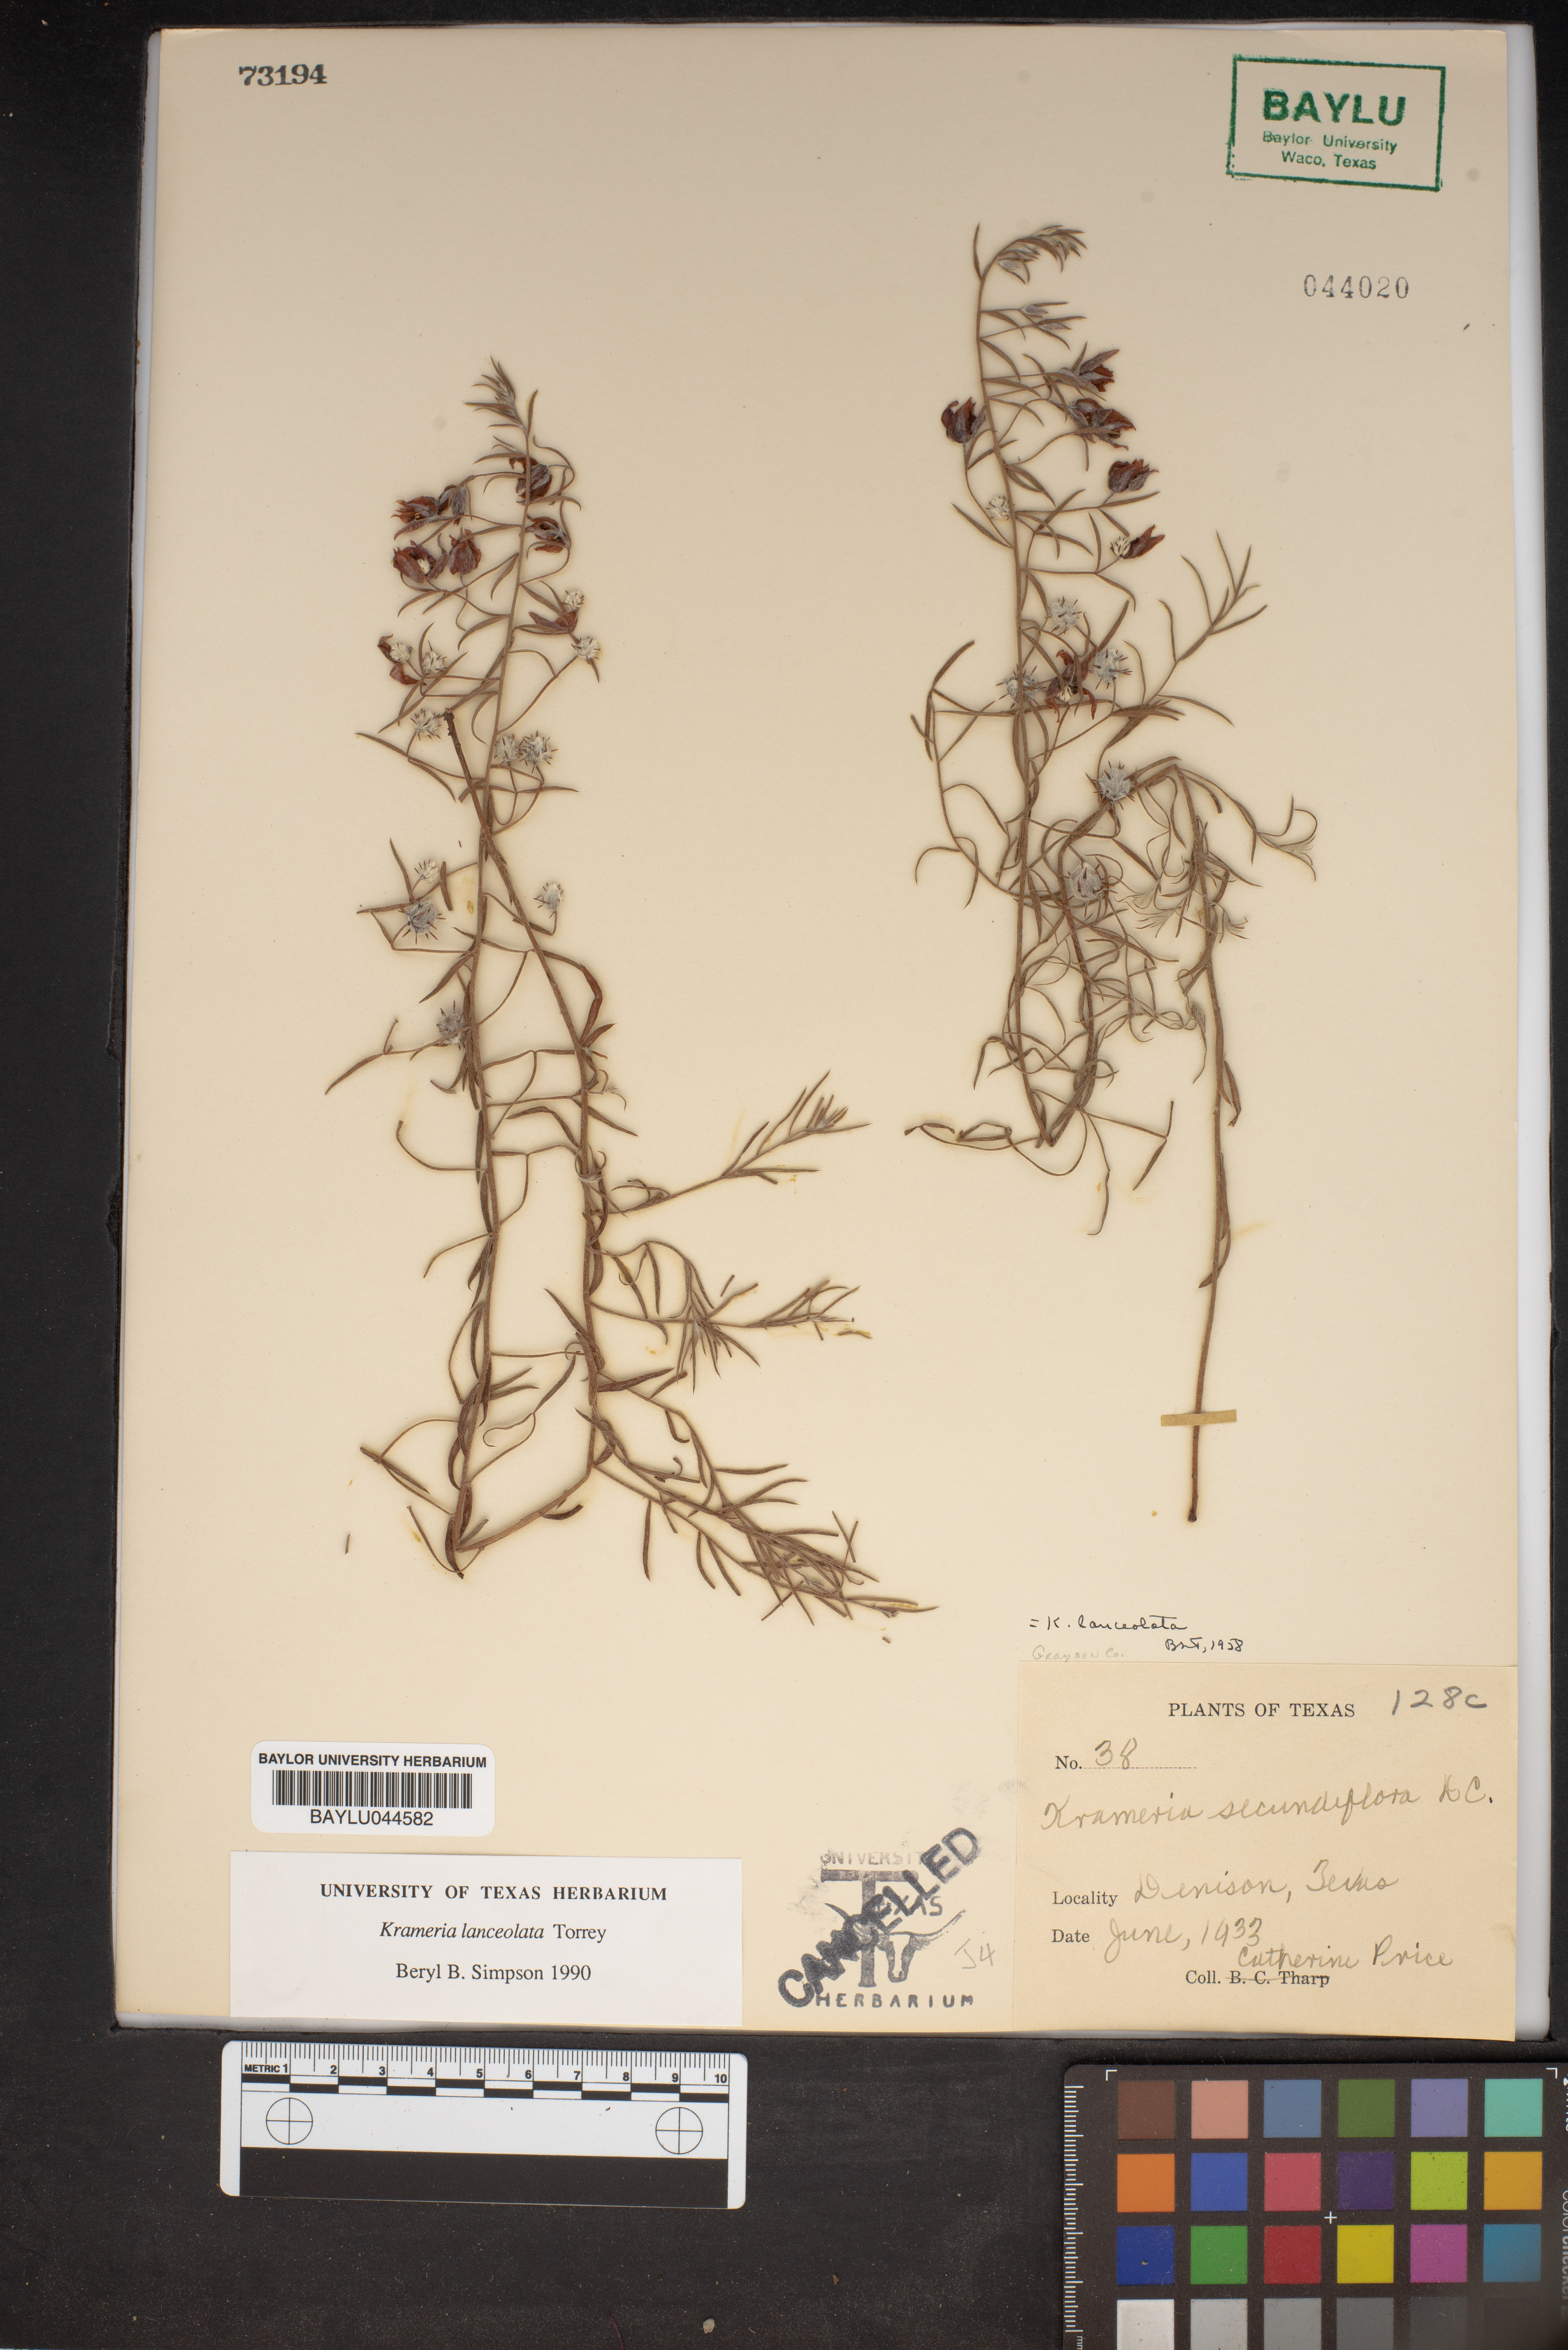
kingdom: Plantae
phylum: Tracheophyta
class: Magnoliopsida
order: Zygophyllales
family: Krameriaceae
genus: Krameria
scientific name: Krameria lanceolata
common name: Ratany
